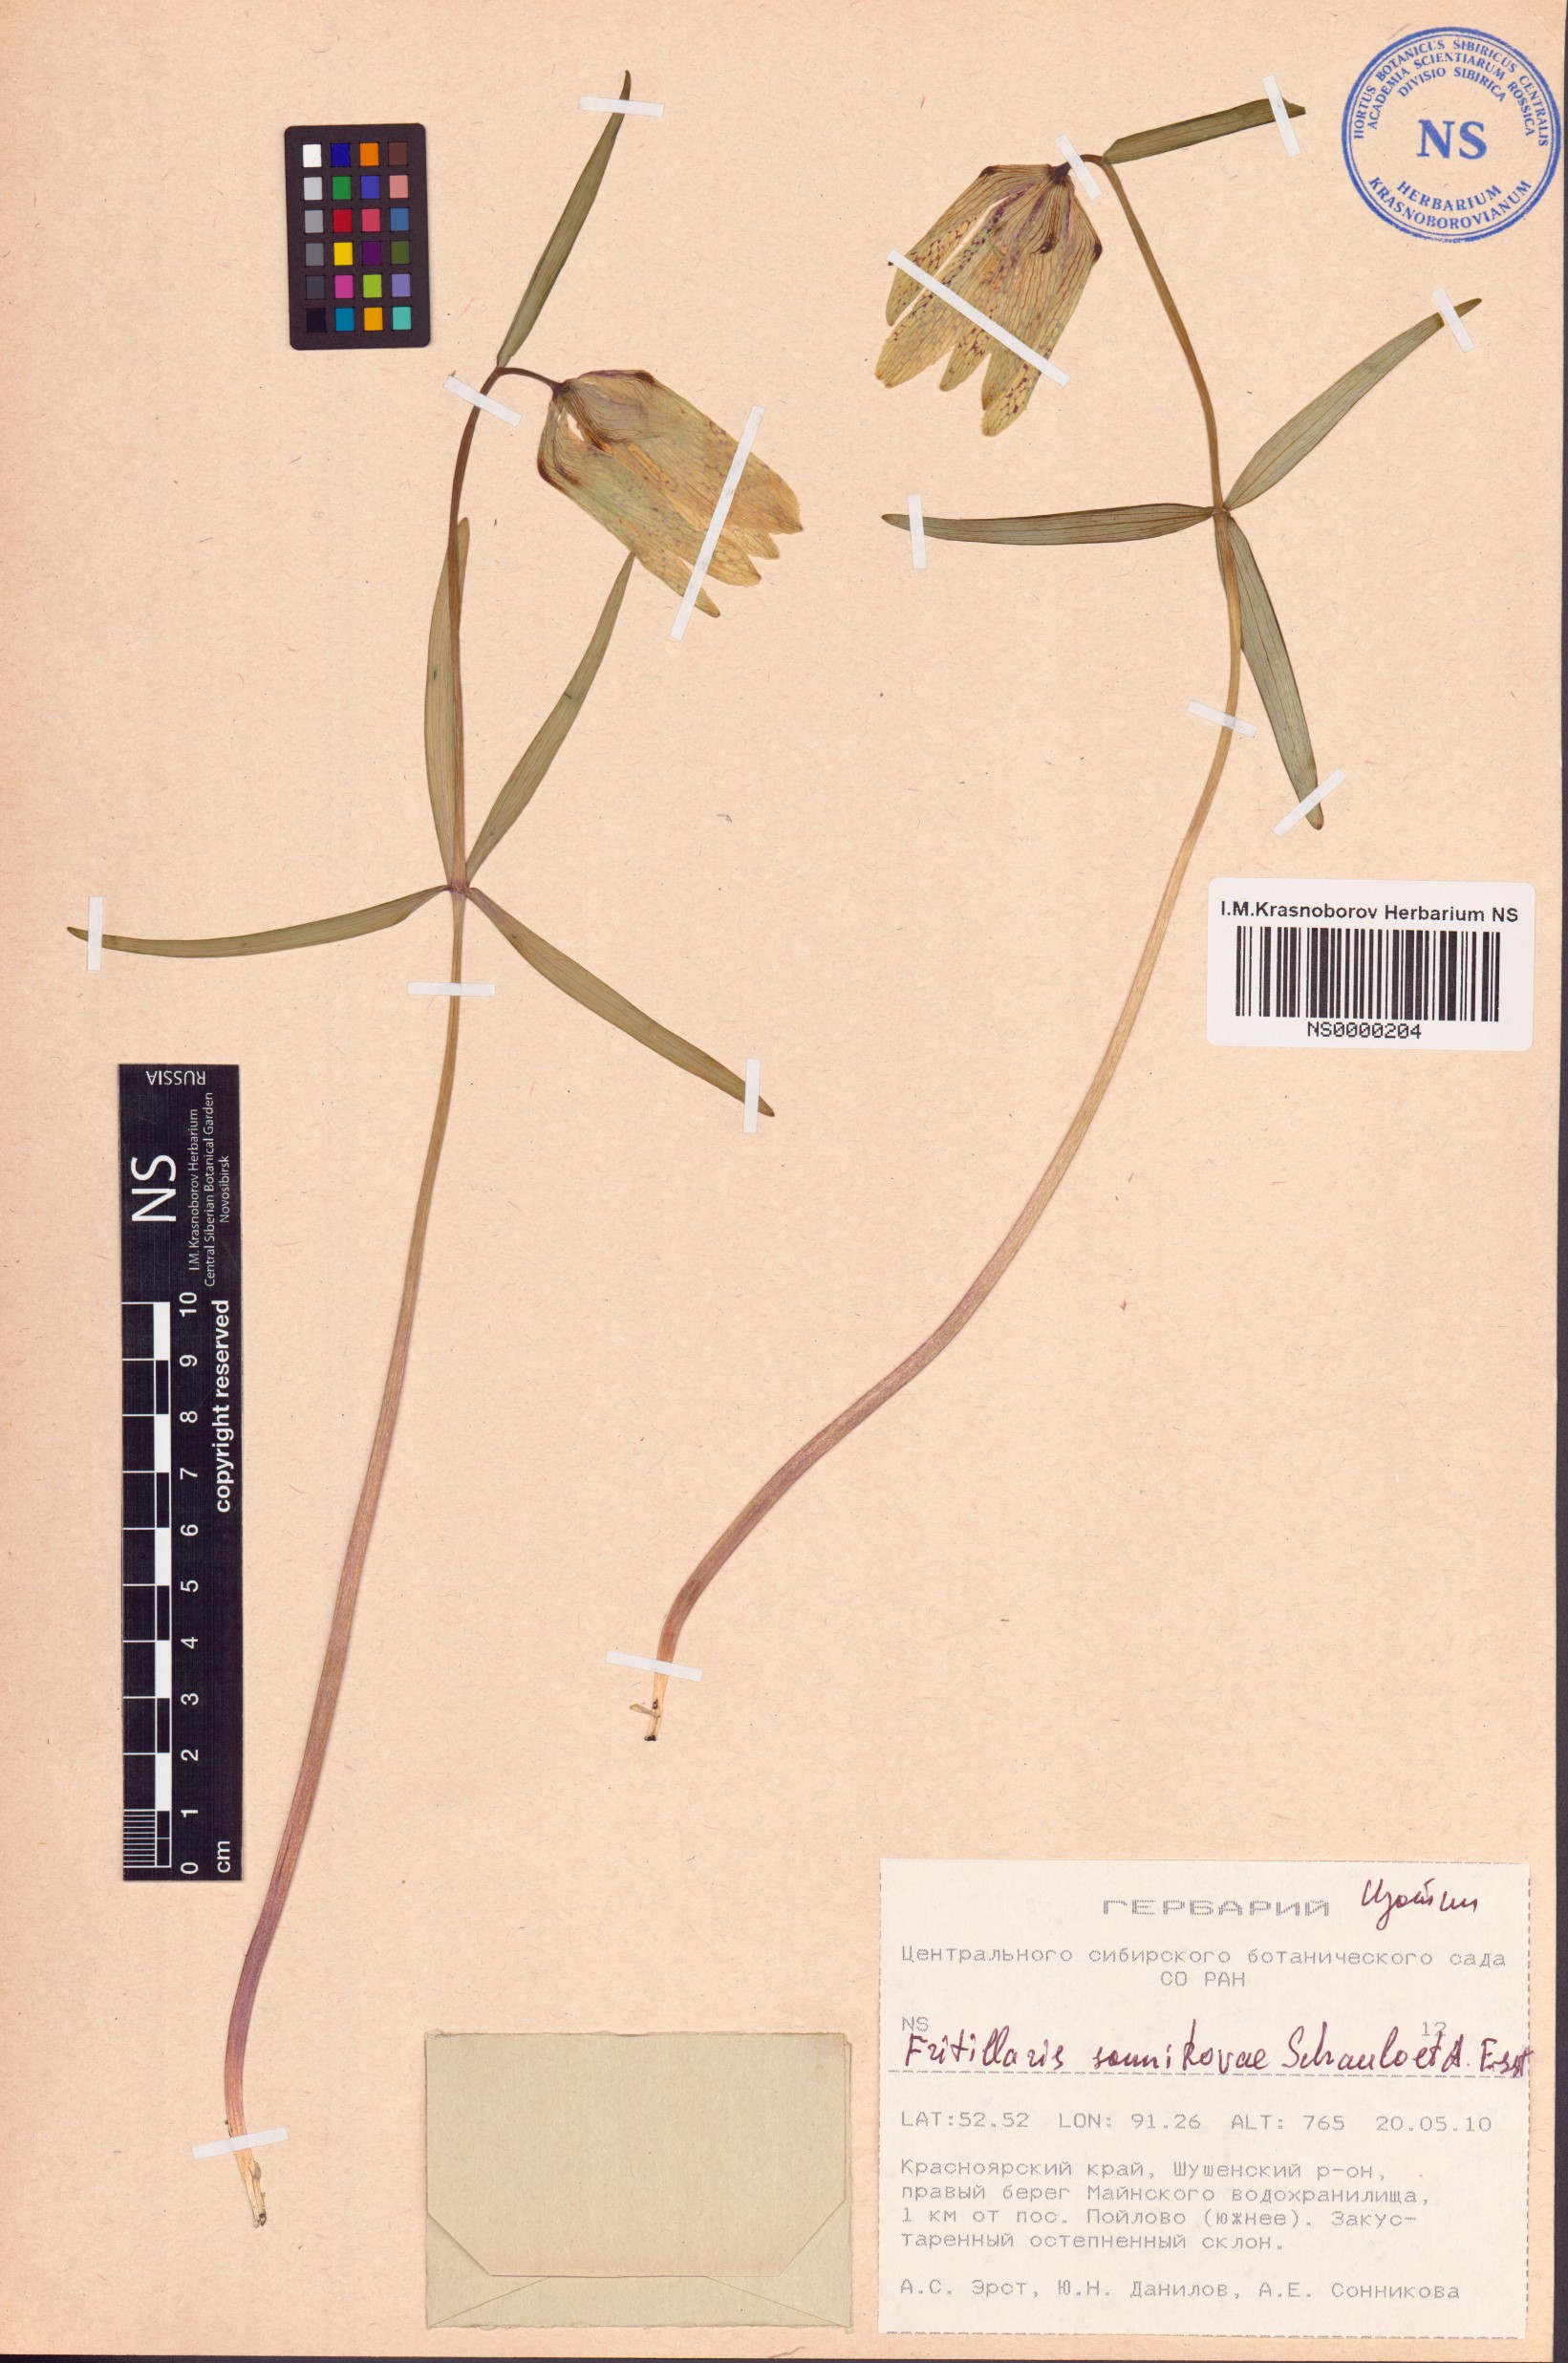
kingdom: Plantae
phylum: Tracheophyta
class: Liliopsida
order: Liliales
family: Liliaceae
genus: Fritillaria
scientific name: Fritillaria sonnikovae
